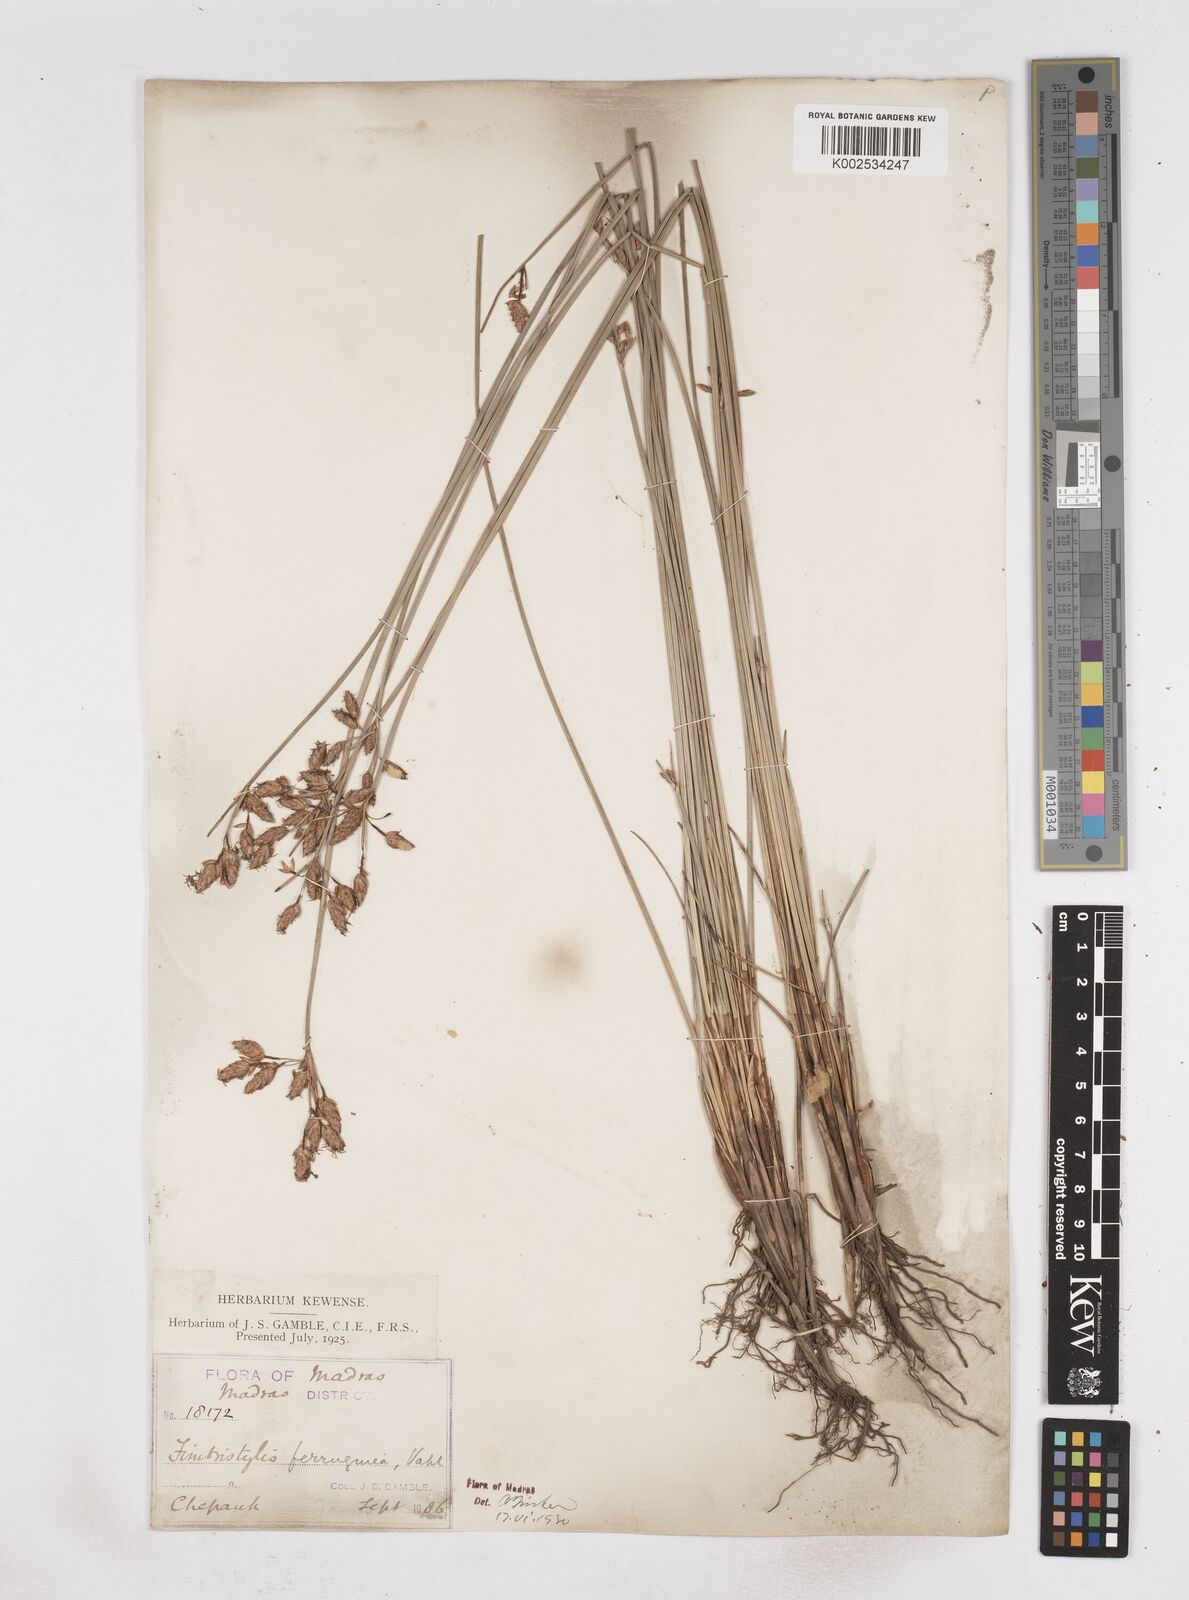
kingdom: Plantae
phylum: Tracheophyta
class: Liliopsida
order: Poales
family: Cyperaceae
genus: Fimbristylis
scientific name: Fimbristylis ferruginea
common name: West indian fimbry
